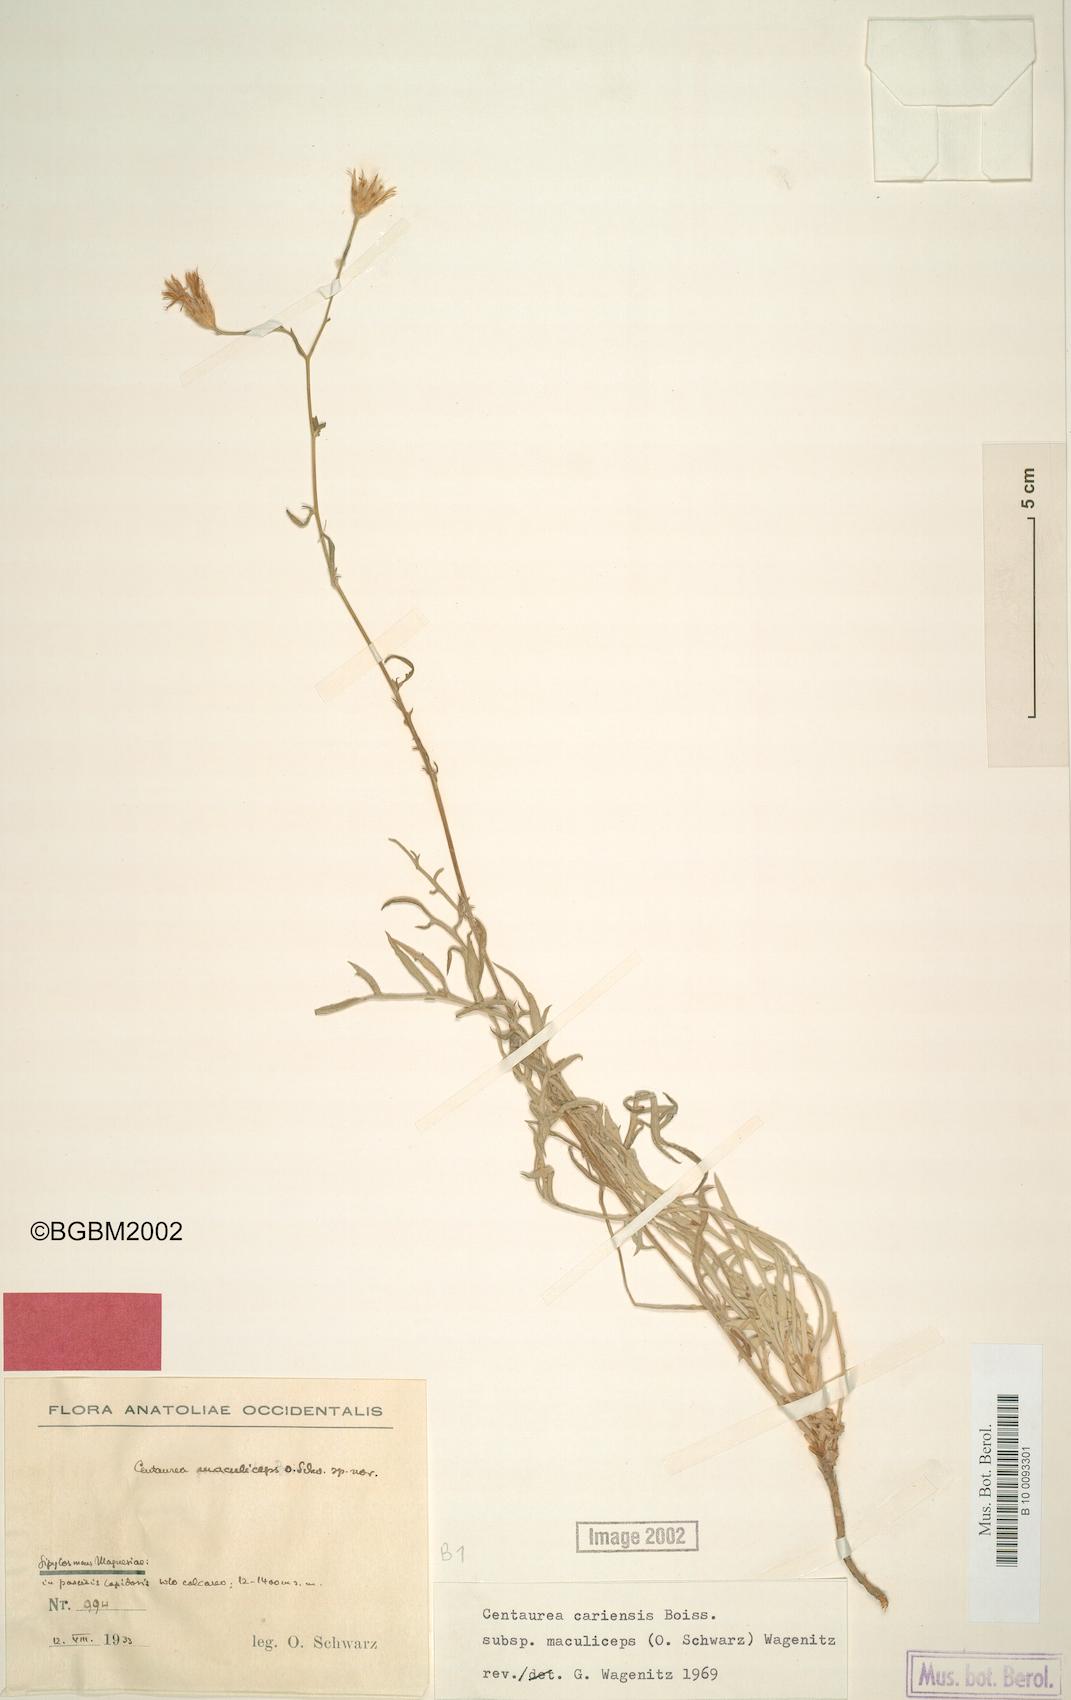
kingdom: Plantae
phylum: Tracheophyta
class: Magnoliopsida
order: Asterales
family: Asteraceae
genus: Centaurea
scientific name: Centaurea cariensis
